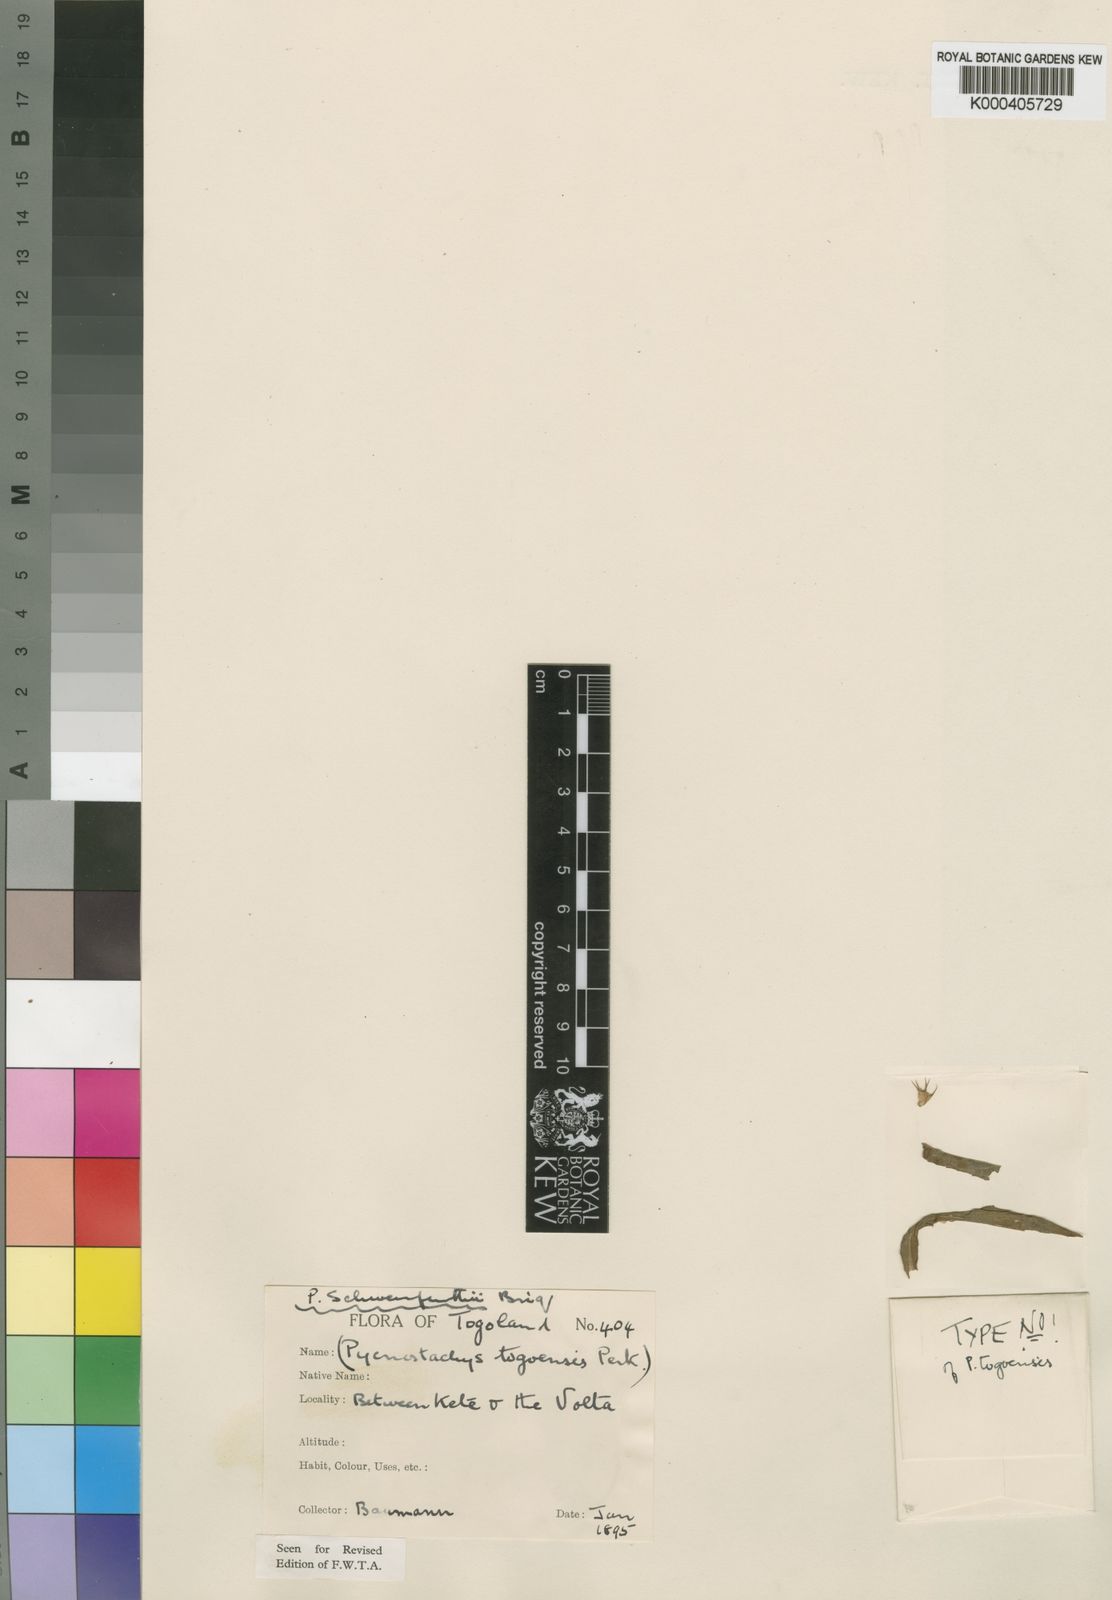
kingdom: Plantae
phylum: Tracheophyta
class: Magnoliopsida
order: Lamiales
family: Lamiaceae
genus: Coleus
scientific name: Coleus togoensis
